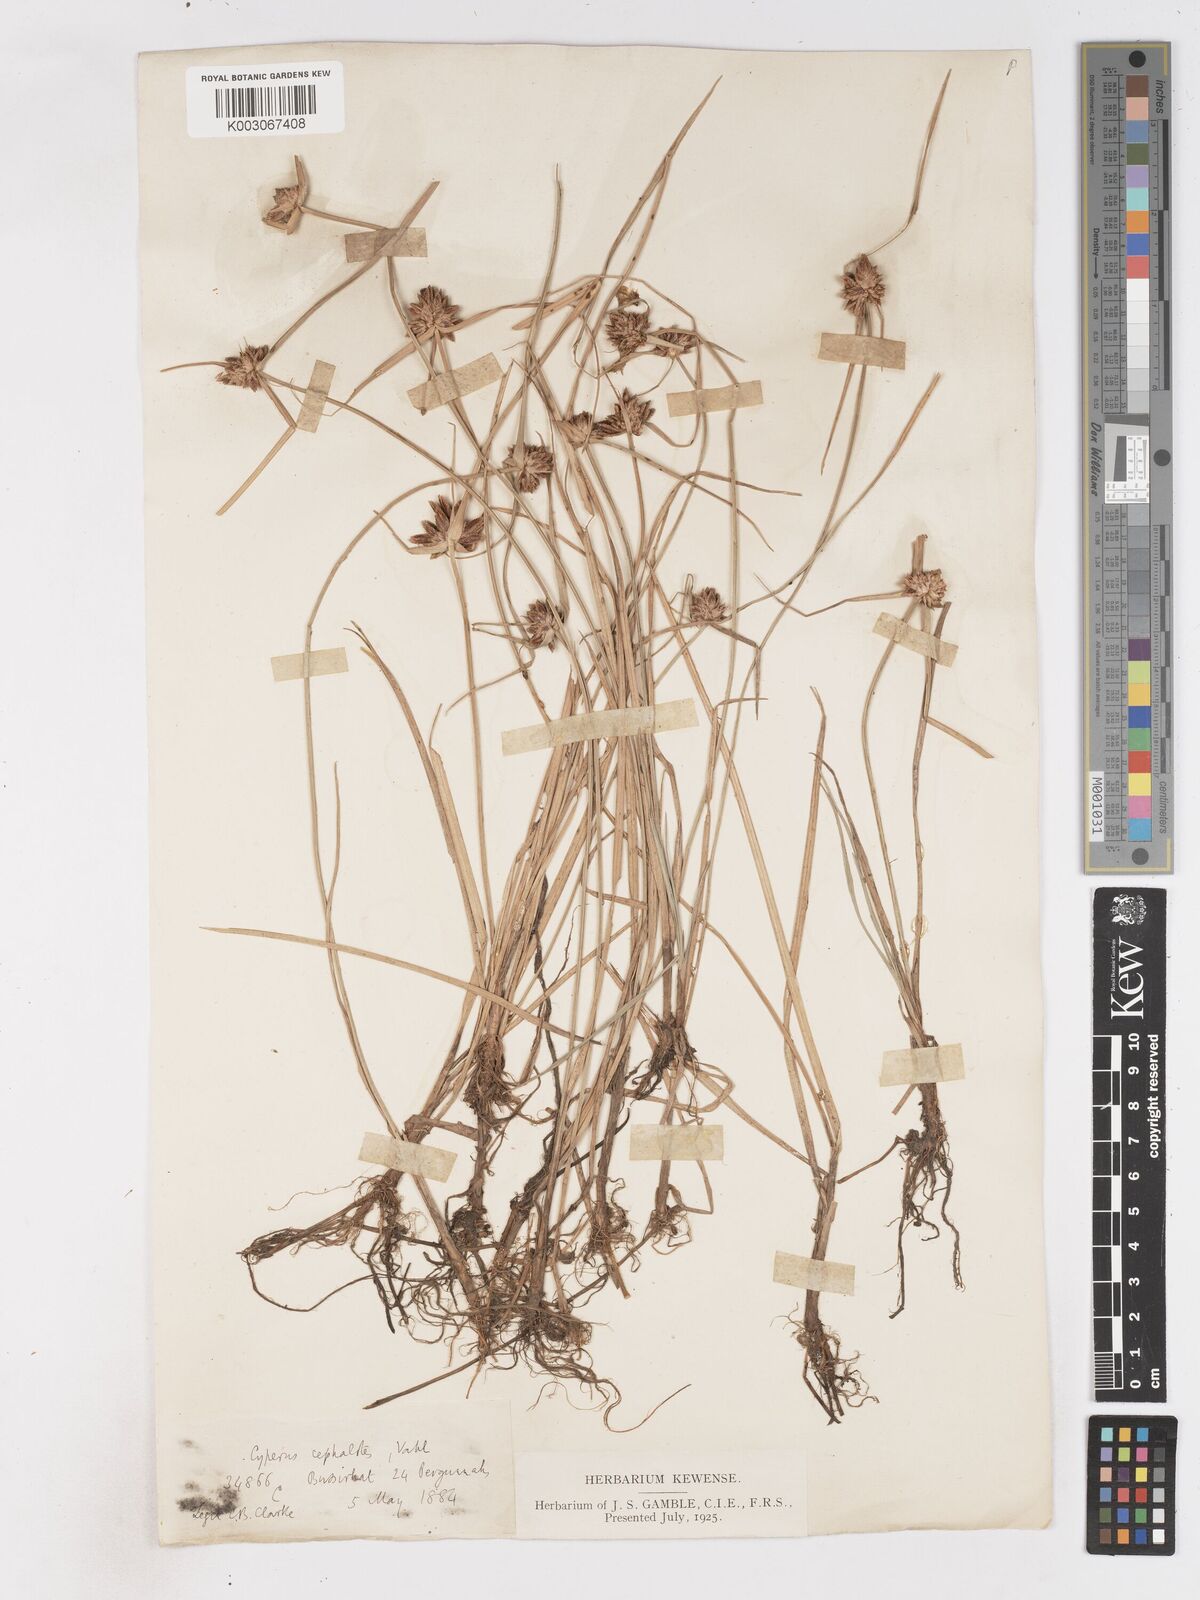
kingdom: Plantae
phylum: Tracheophyta
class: Liliopsida
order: Poales
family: Cyperaceae
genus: Cyperus
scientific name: Cyperus cephalotes
